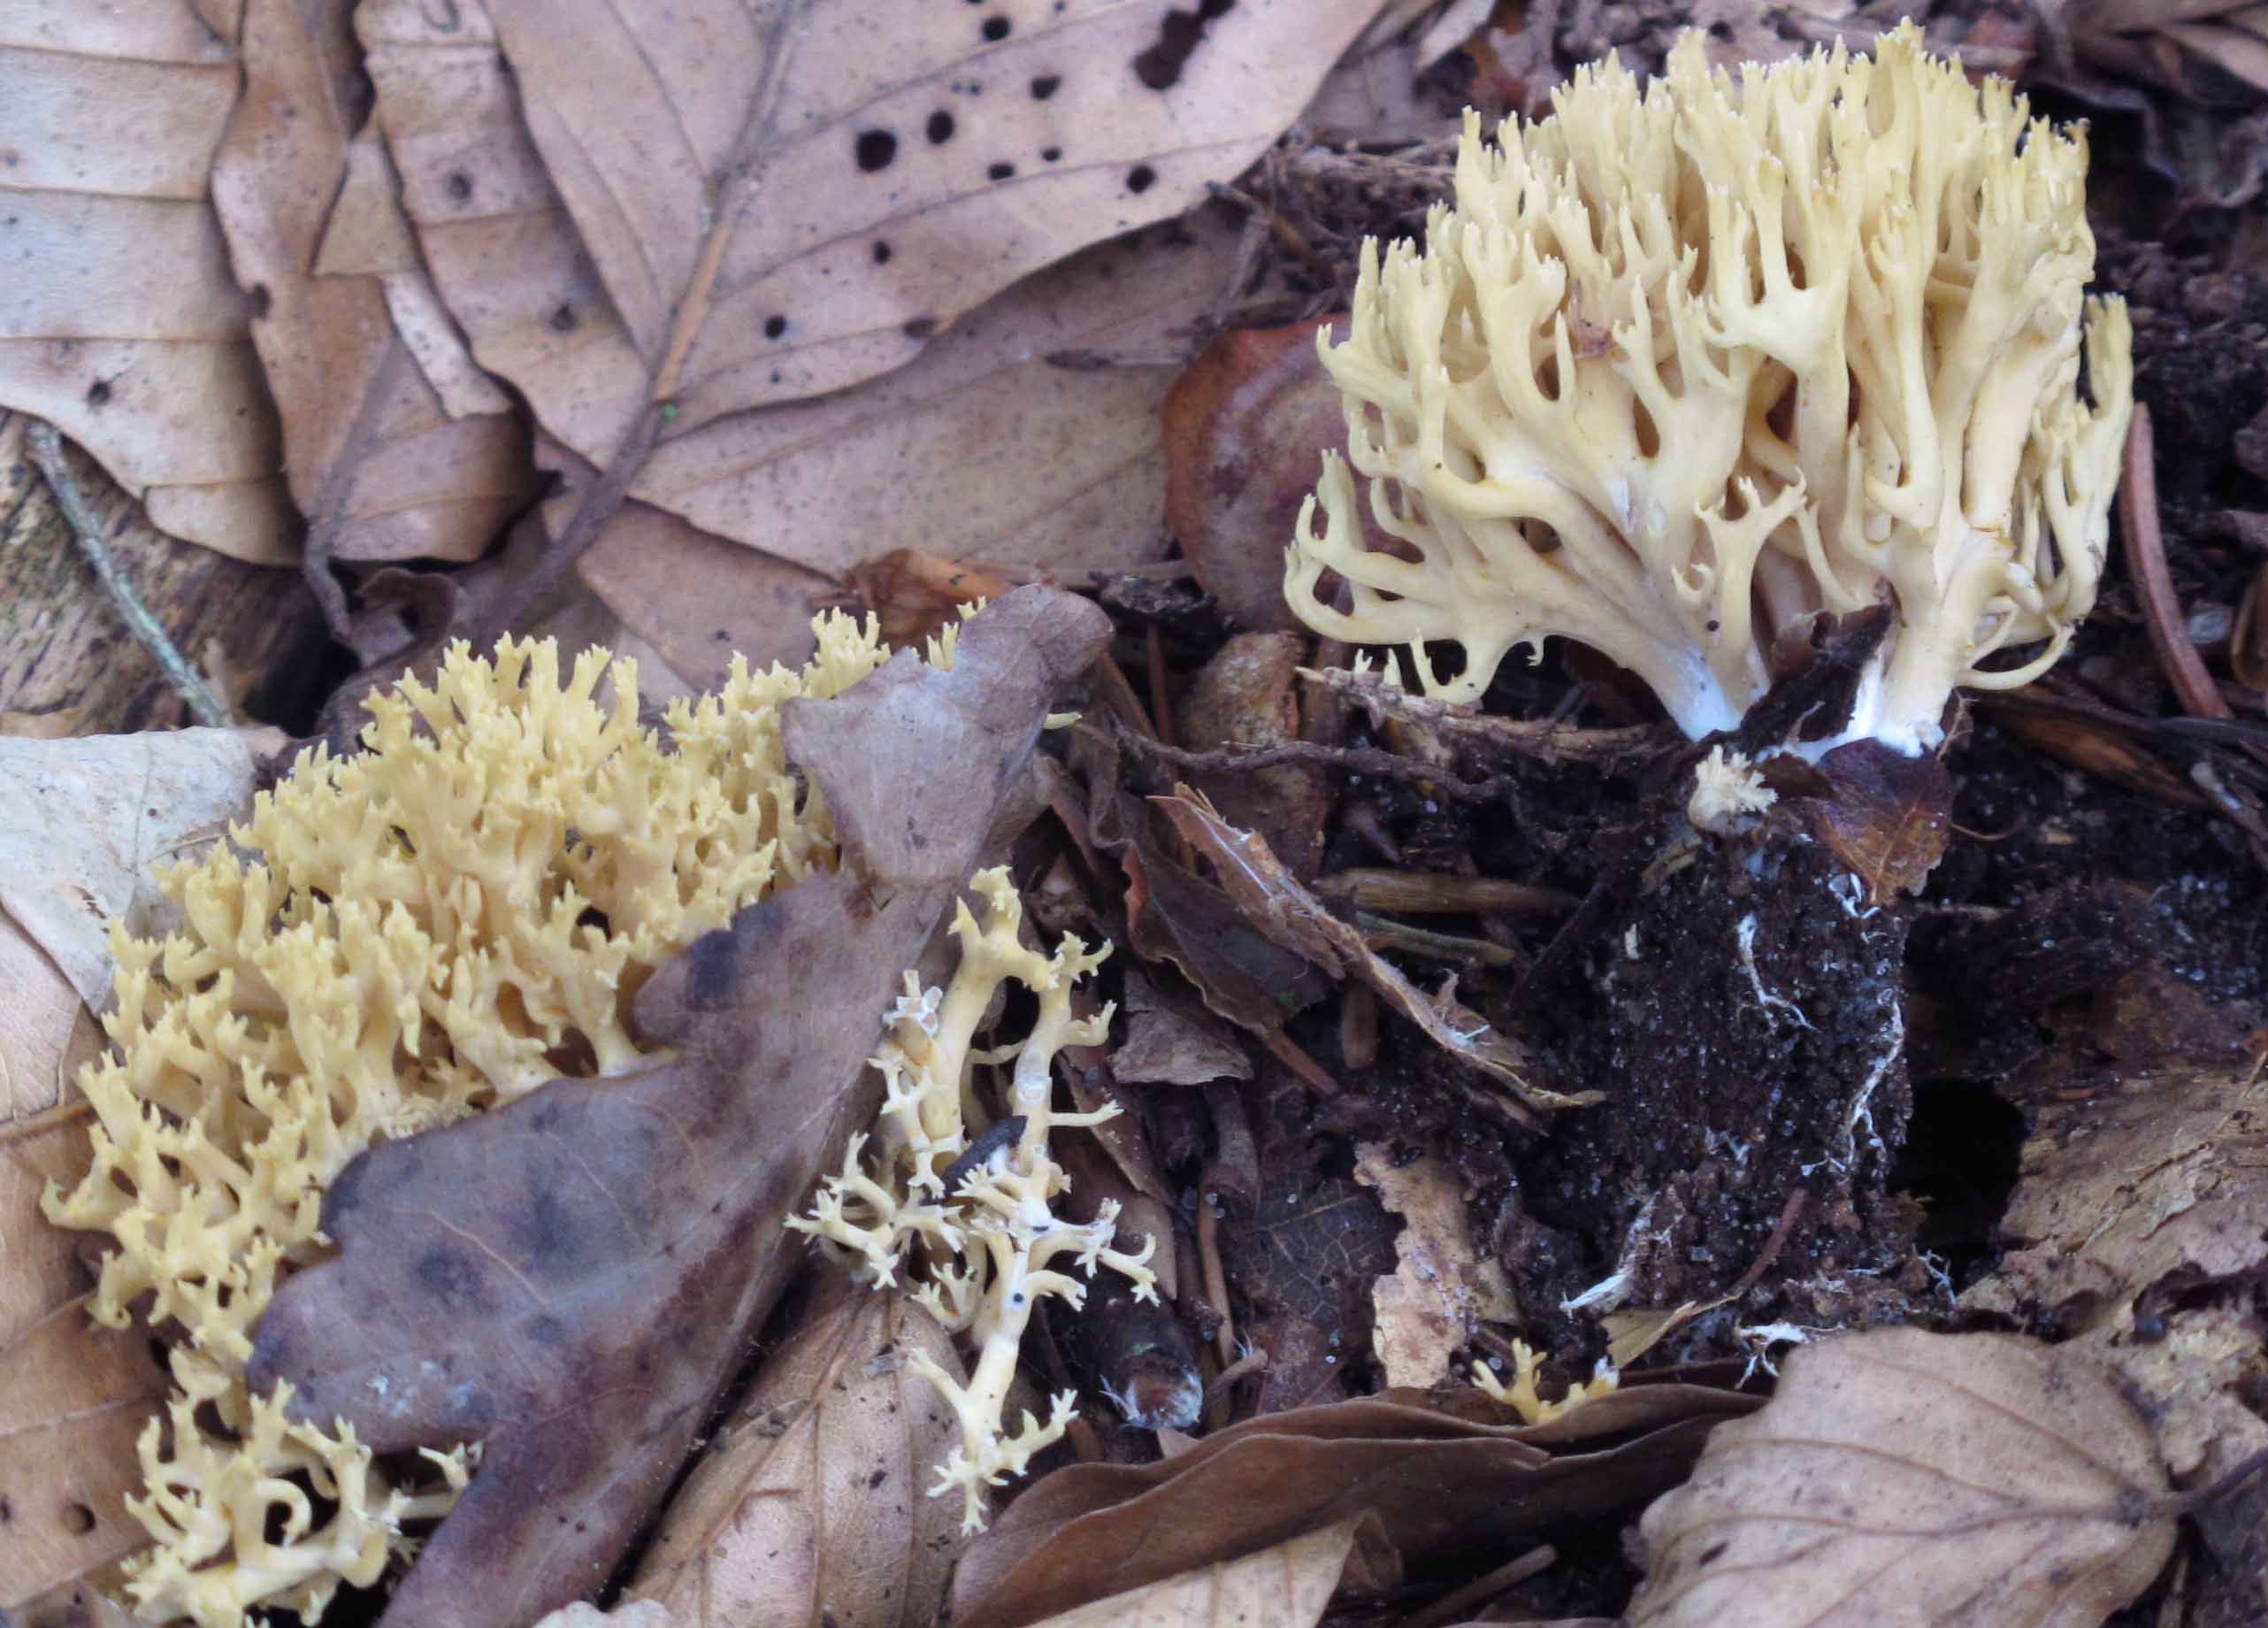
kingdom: Fungi
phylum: Basidiomycota
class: Agaricomycetes
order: Gomphales
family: Gomphaceae
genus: Phaeoclavulina
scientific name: Phaeoclavulina flaccida
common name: spinkel koralsvamp
